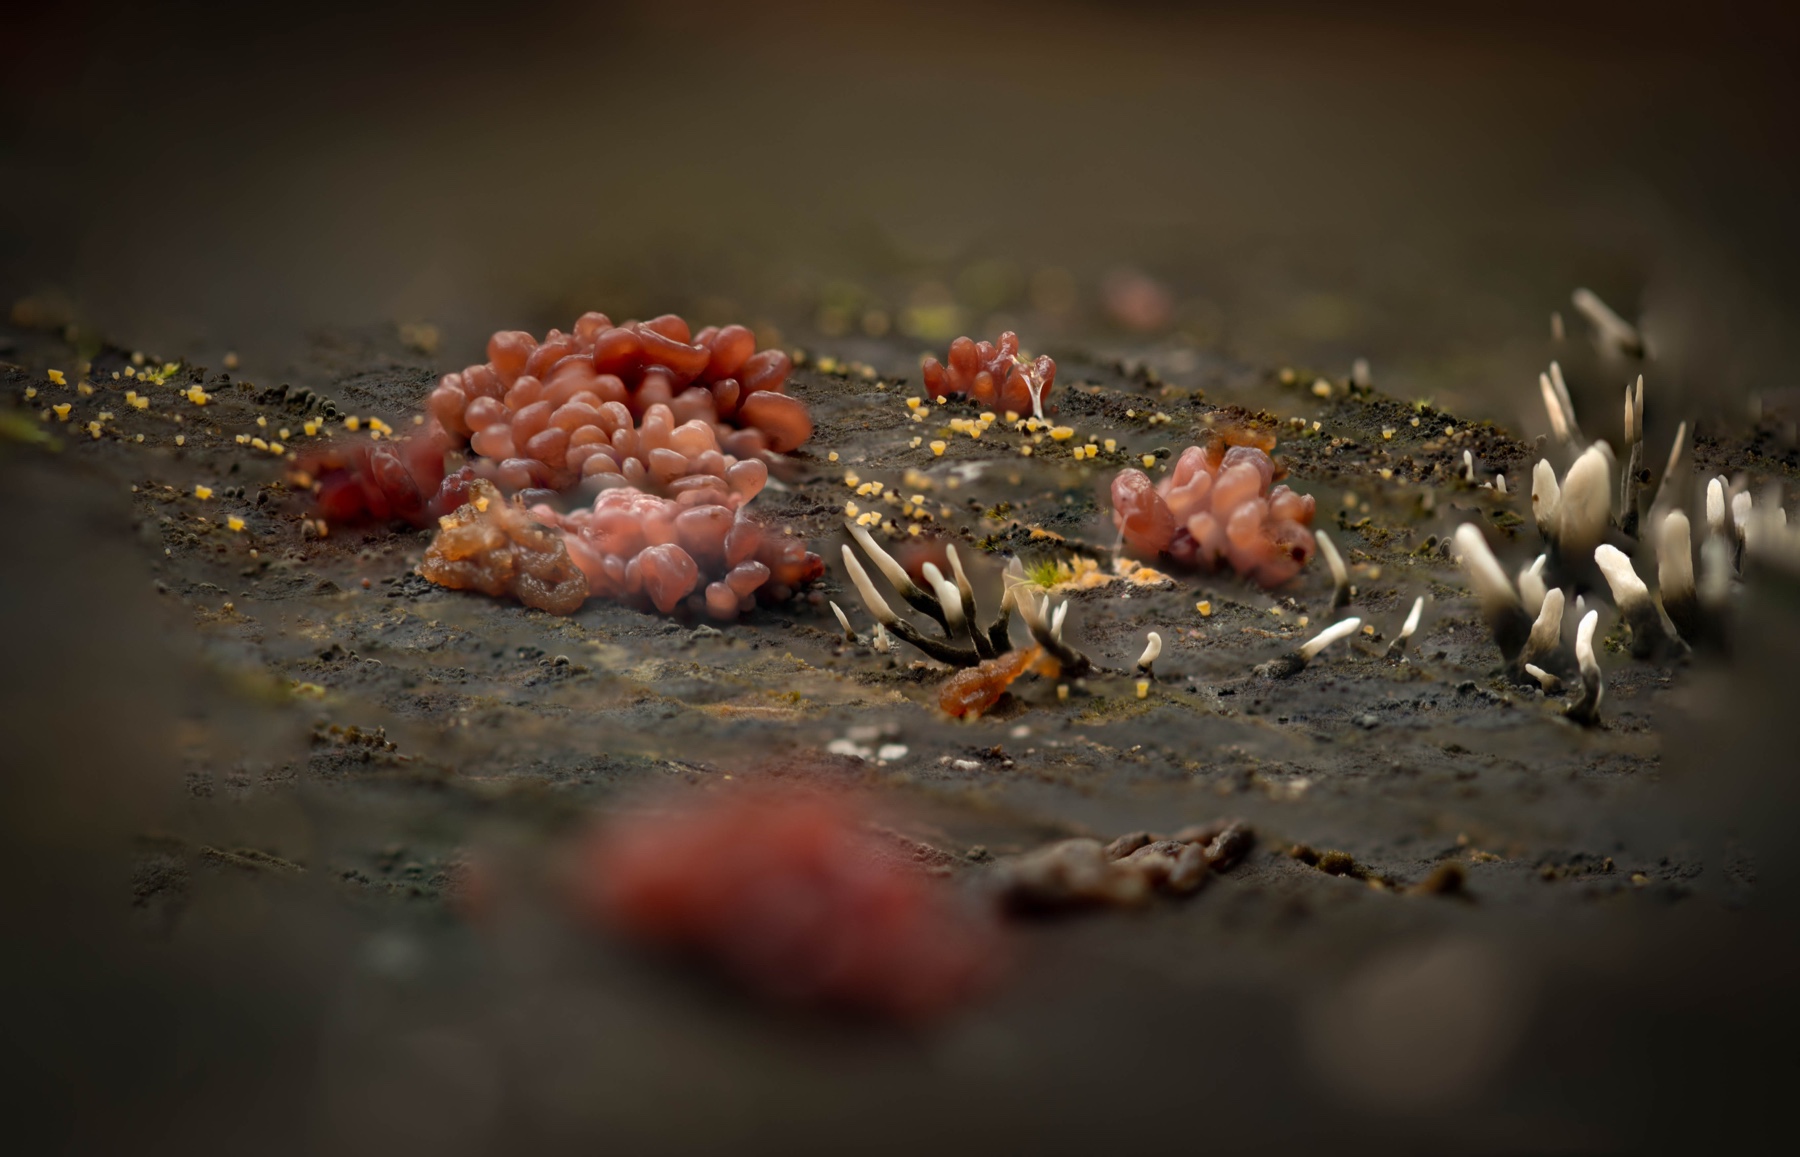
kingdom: Fungi
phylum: Ascomycota
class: Sordariomycetes
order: Xylariales
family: Xylariaceae
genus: Xylaria
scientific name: Xylaria hypoxylon
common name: grenet stødsvamp
